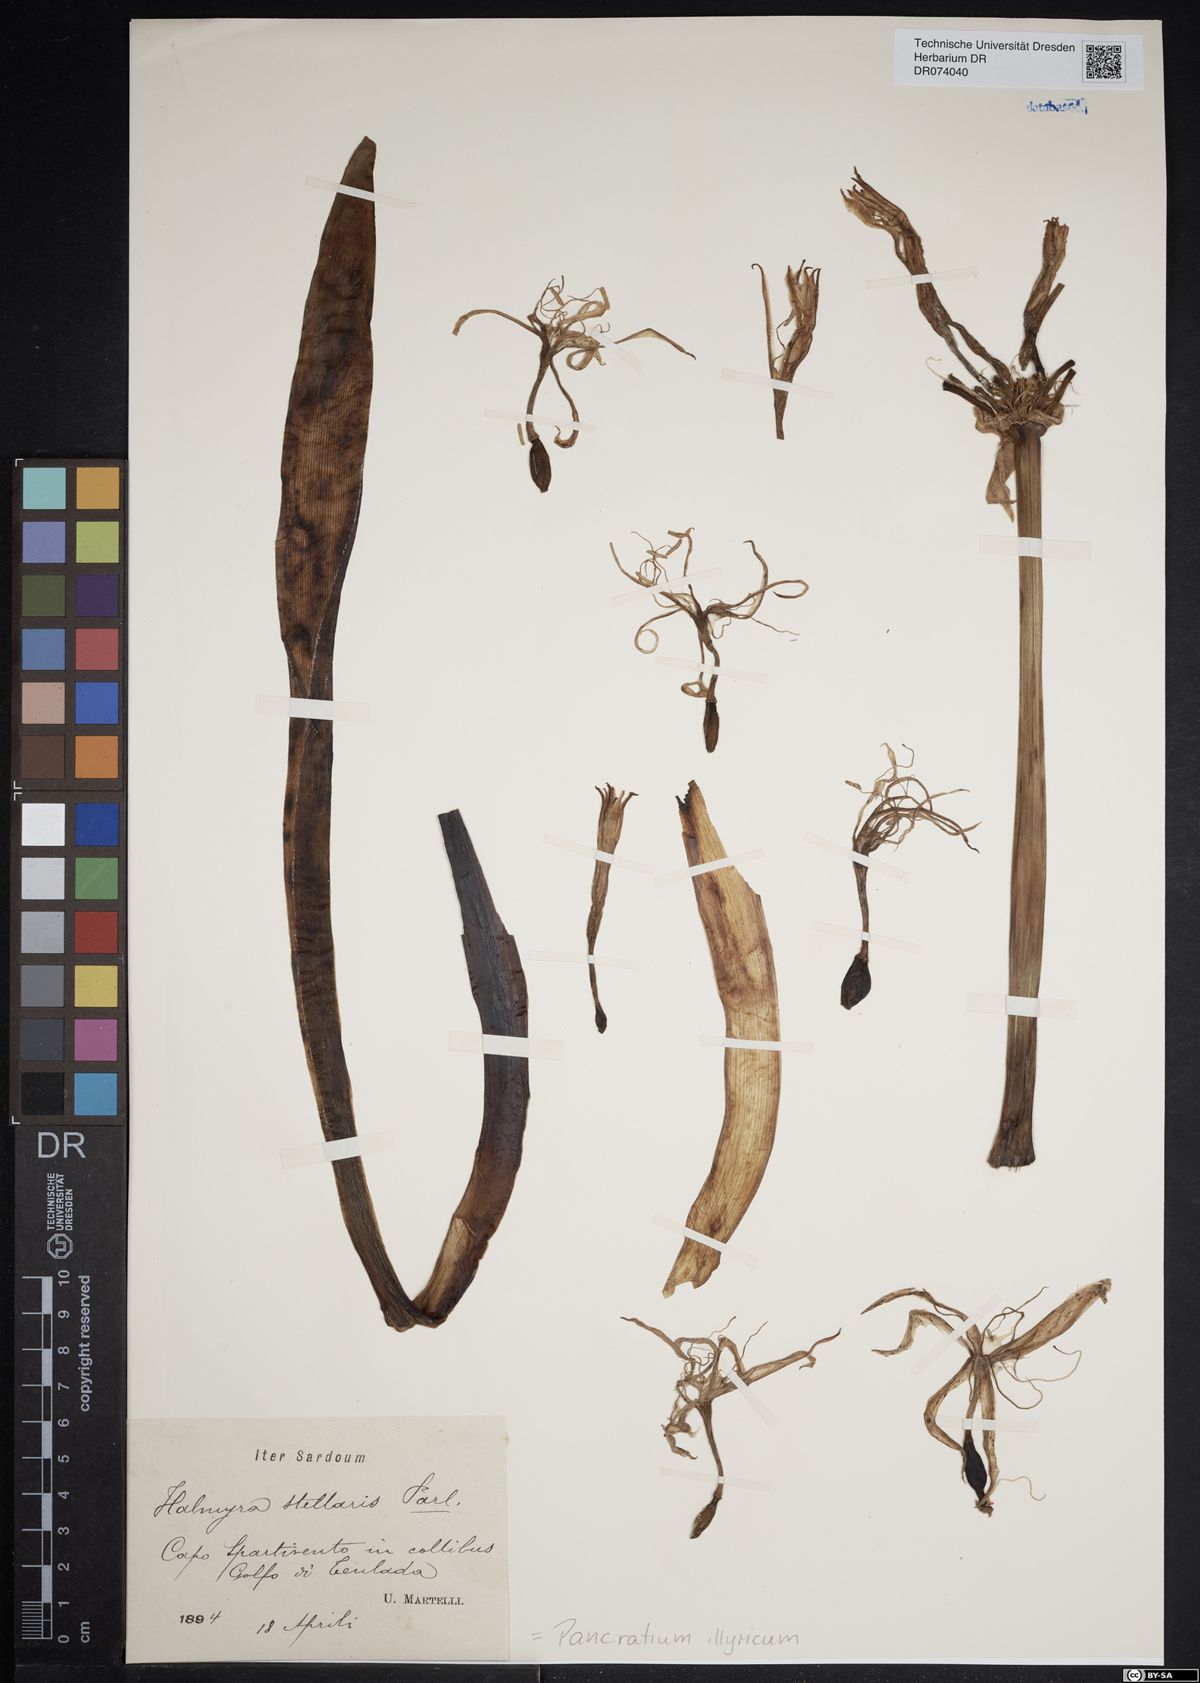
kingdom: Plantae
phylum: Tracheophyta
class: Liliopsida
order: Asparagales
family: Amaryllidaceae
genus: Pancratium
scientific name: Pancratium illyricum
